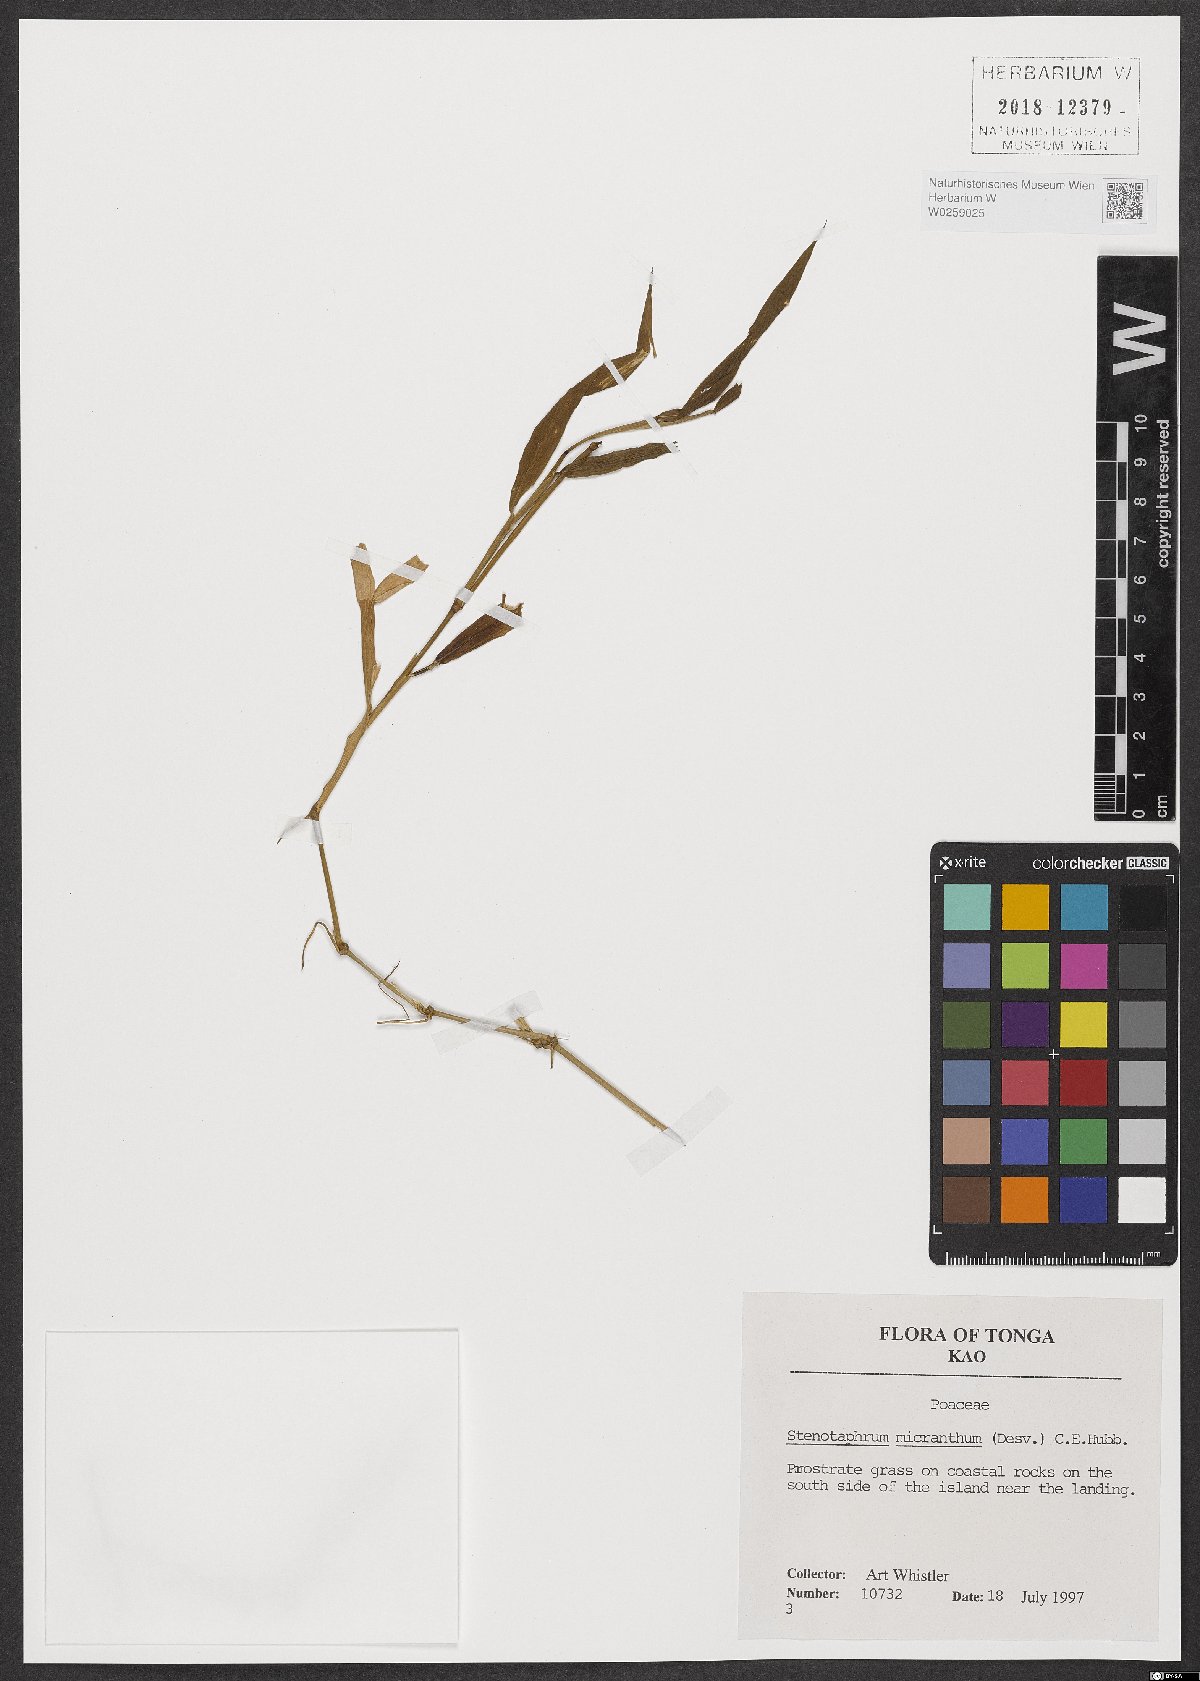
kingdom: Plantae
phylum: Tracheophyta
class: Liliopsida
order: Poales
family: Poaceae
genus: Stenotaphrum
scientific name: Stenotaphrum micranthum
